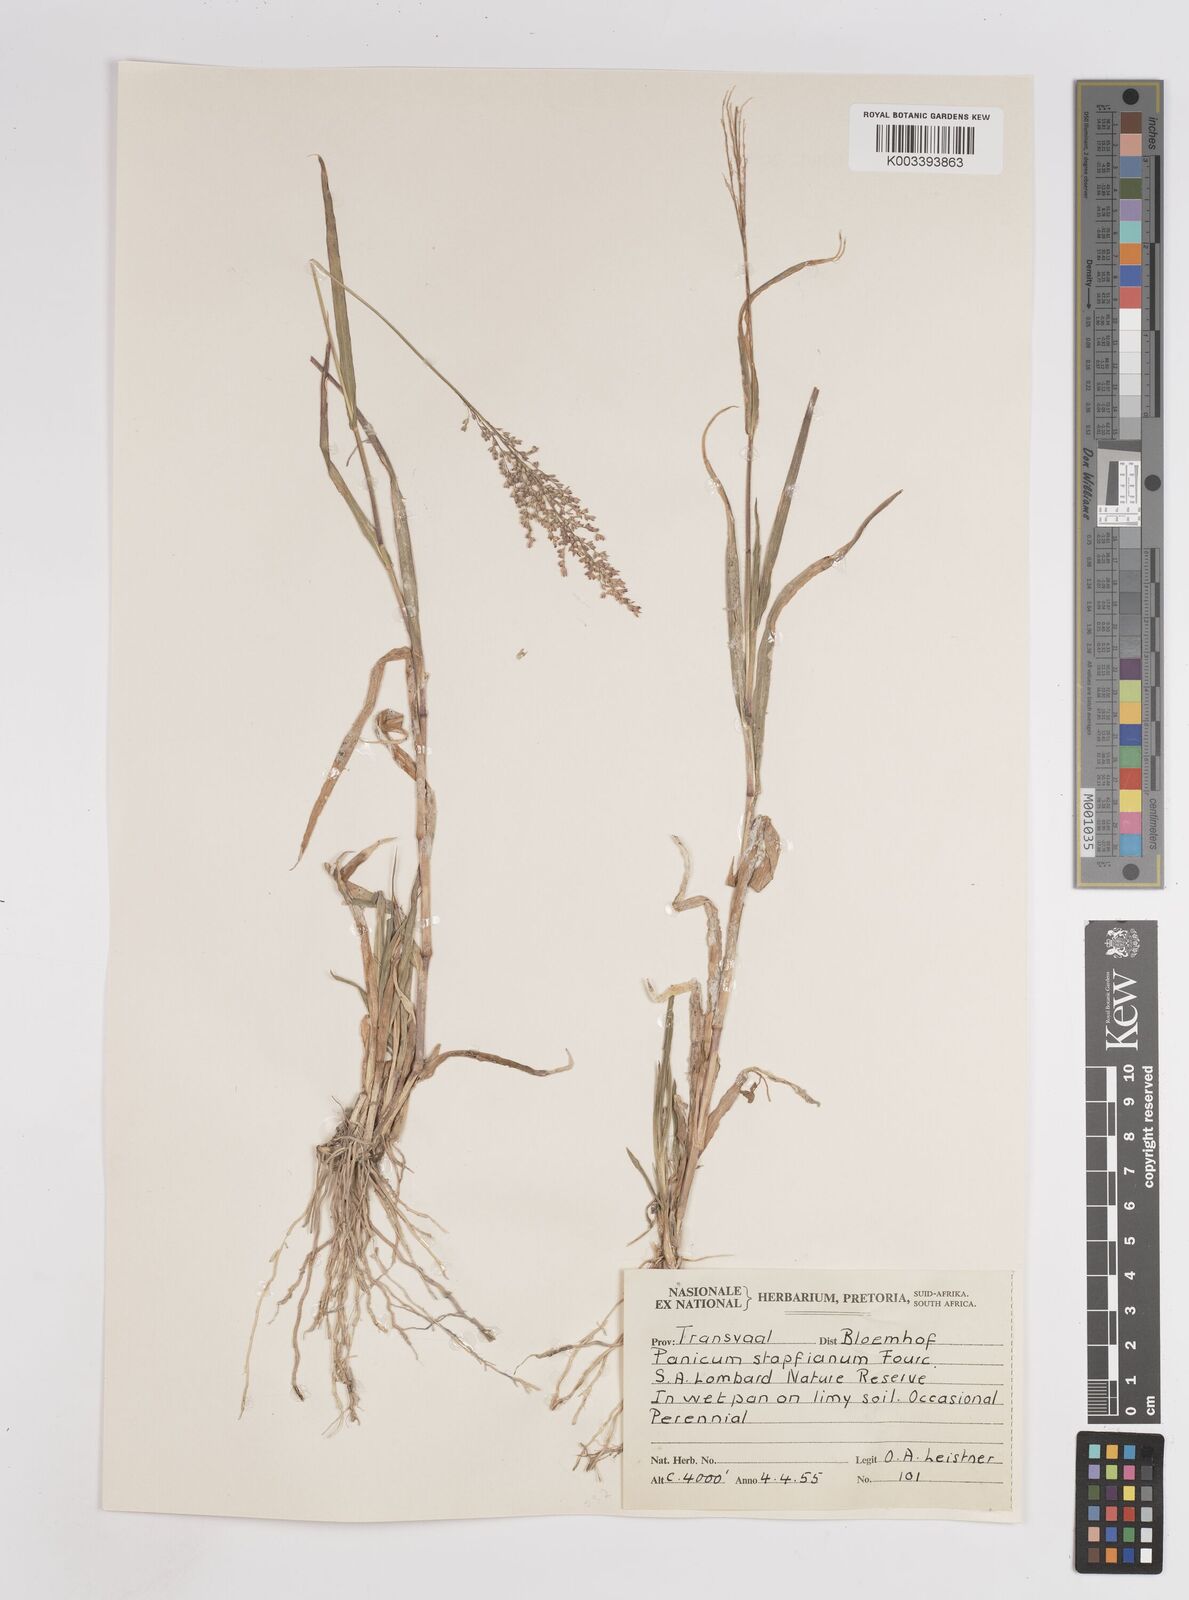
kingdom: Plantae
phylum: Tracheophyta
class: Liliopsida
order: Poales
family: Poaceae
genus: Panicum
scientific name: Panicum stapfianum
